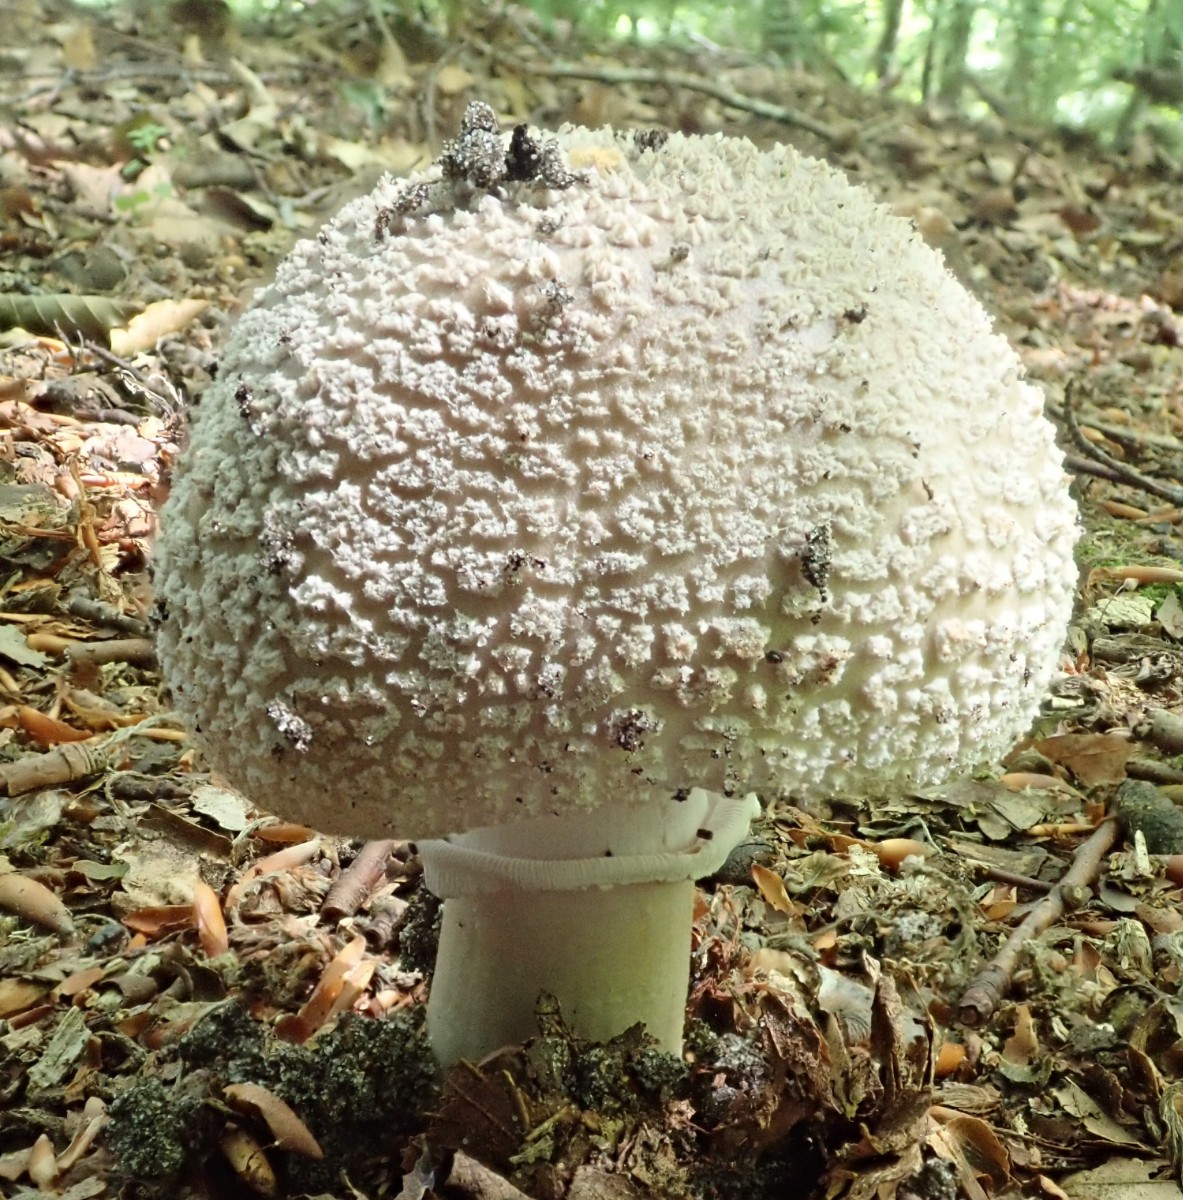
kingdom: Fungi
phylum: Basidiomycota
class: Agaricomycetes
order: Agaricales
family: Amanitaceae
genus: Amanita
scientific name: Amanita rubescens
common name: rødmende fluesvamp
